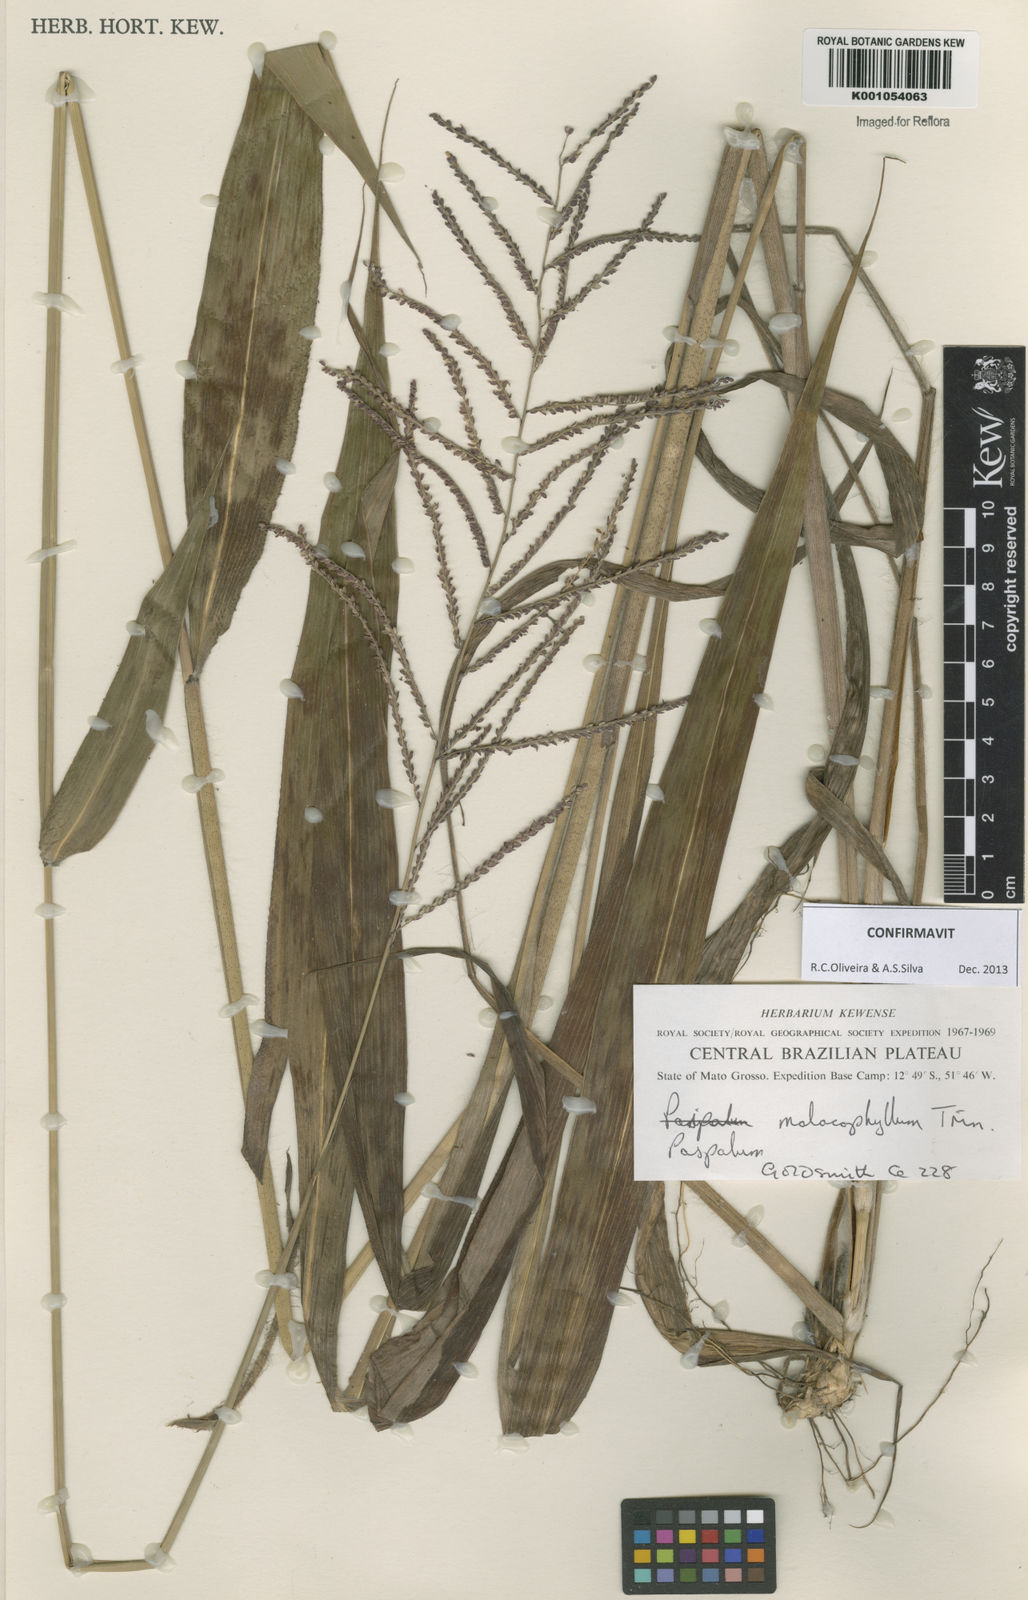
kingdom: Plantae
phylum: Tracheophyta
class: Liliopsida
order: Poales
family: Poaceae
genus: Paspalum
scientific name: Paspalum malacophyllum
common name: Ribbed paspalum
